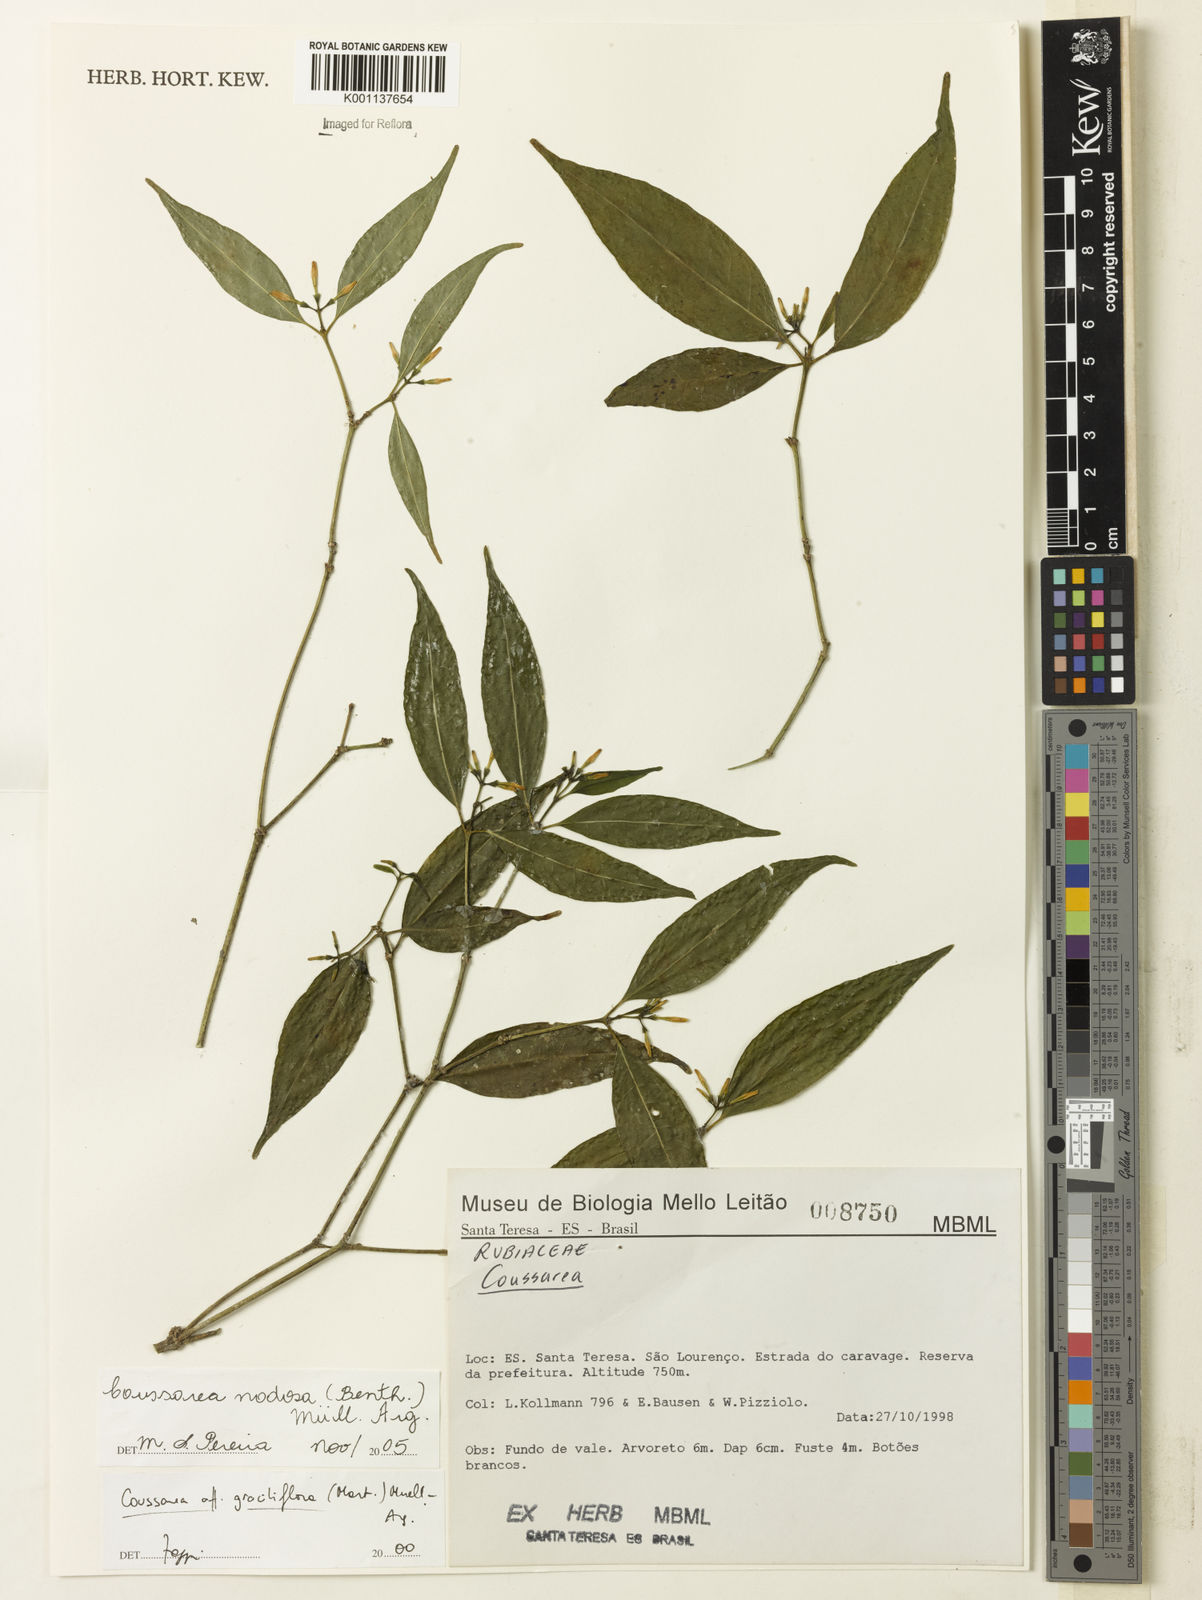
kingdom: Plantae
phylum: Tracheophyta
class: Magnoliopsida
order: Gentianales
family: Rubiaceae
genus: Coussarea
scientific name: Coussarea
